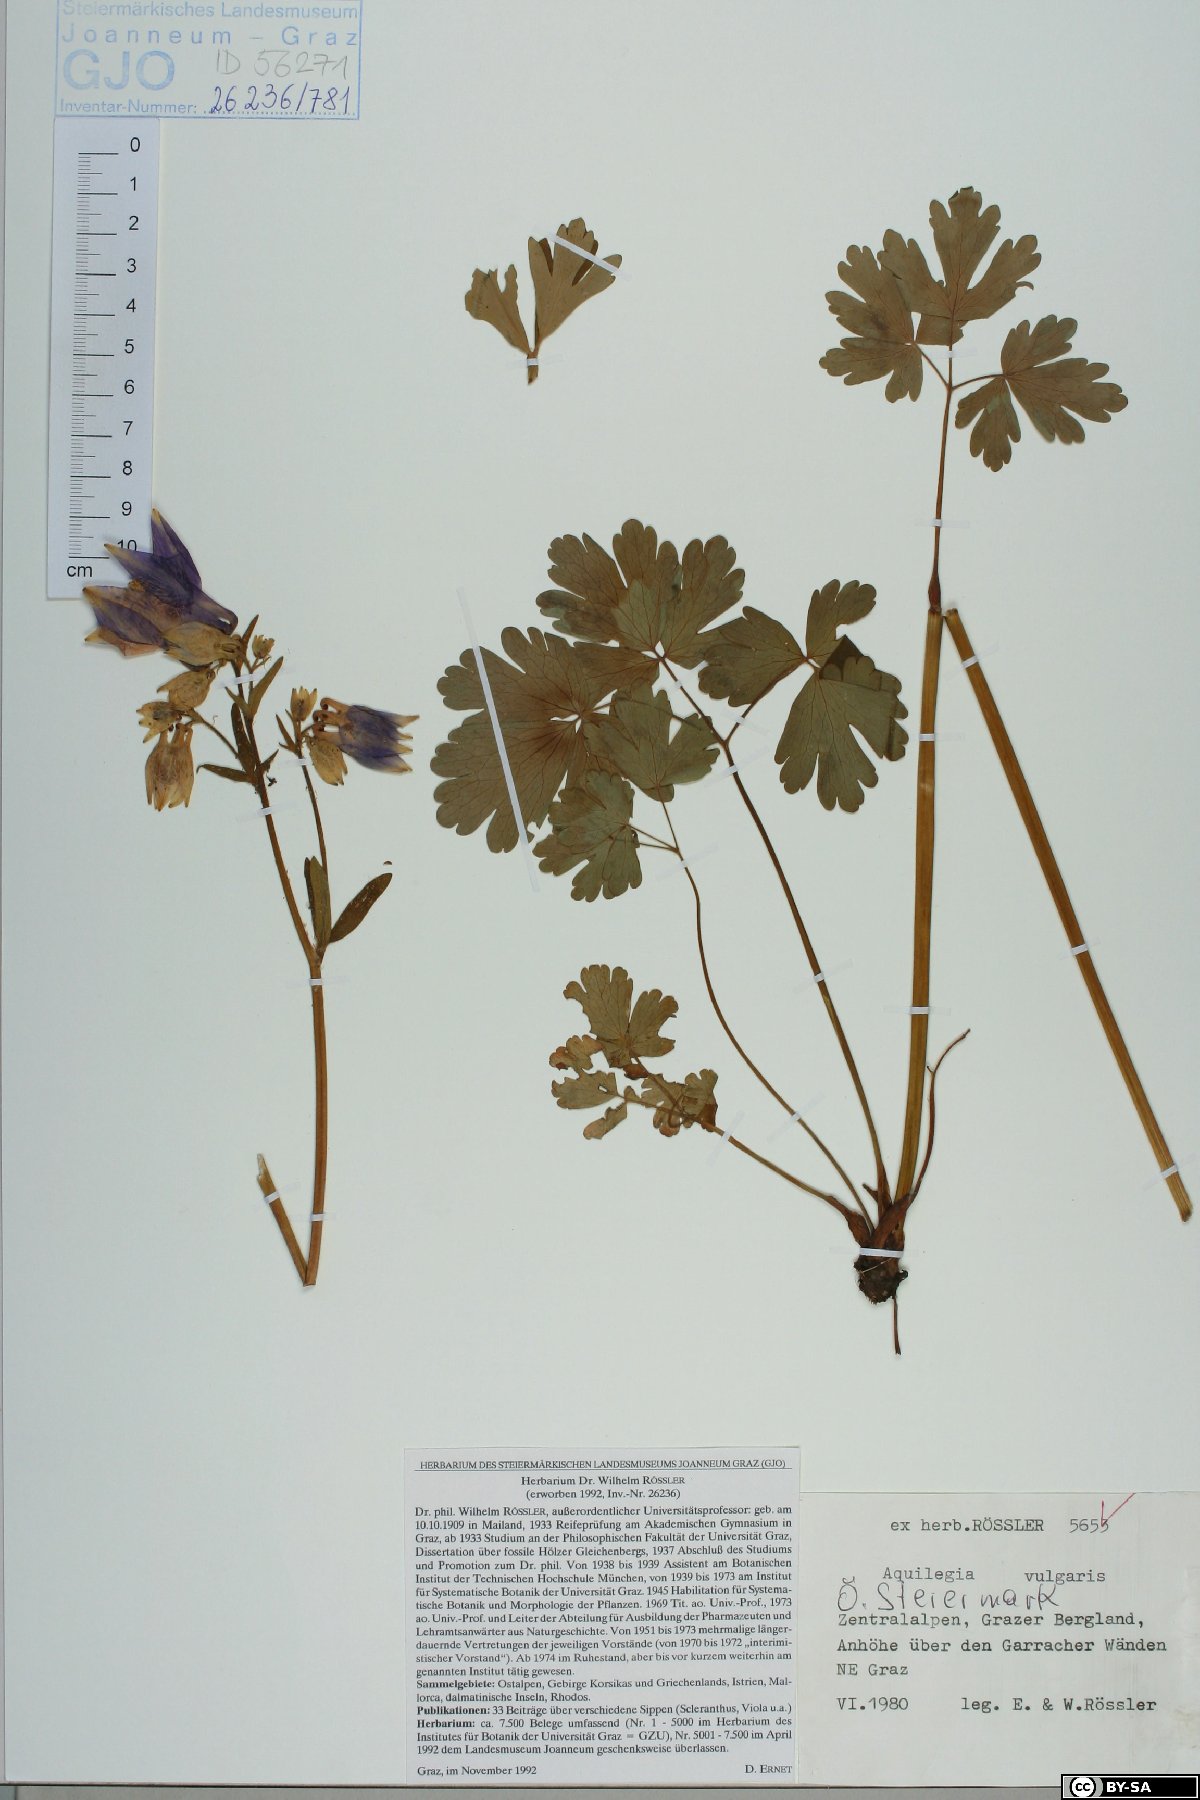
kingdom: Plantae
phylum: Tracheophyta
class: Magnoliopsida
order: Ranunculales
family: Ranunculaceae
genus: Aquilegia
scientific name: Aquilegia vulgaris
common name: Columbine
